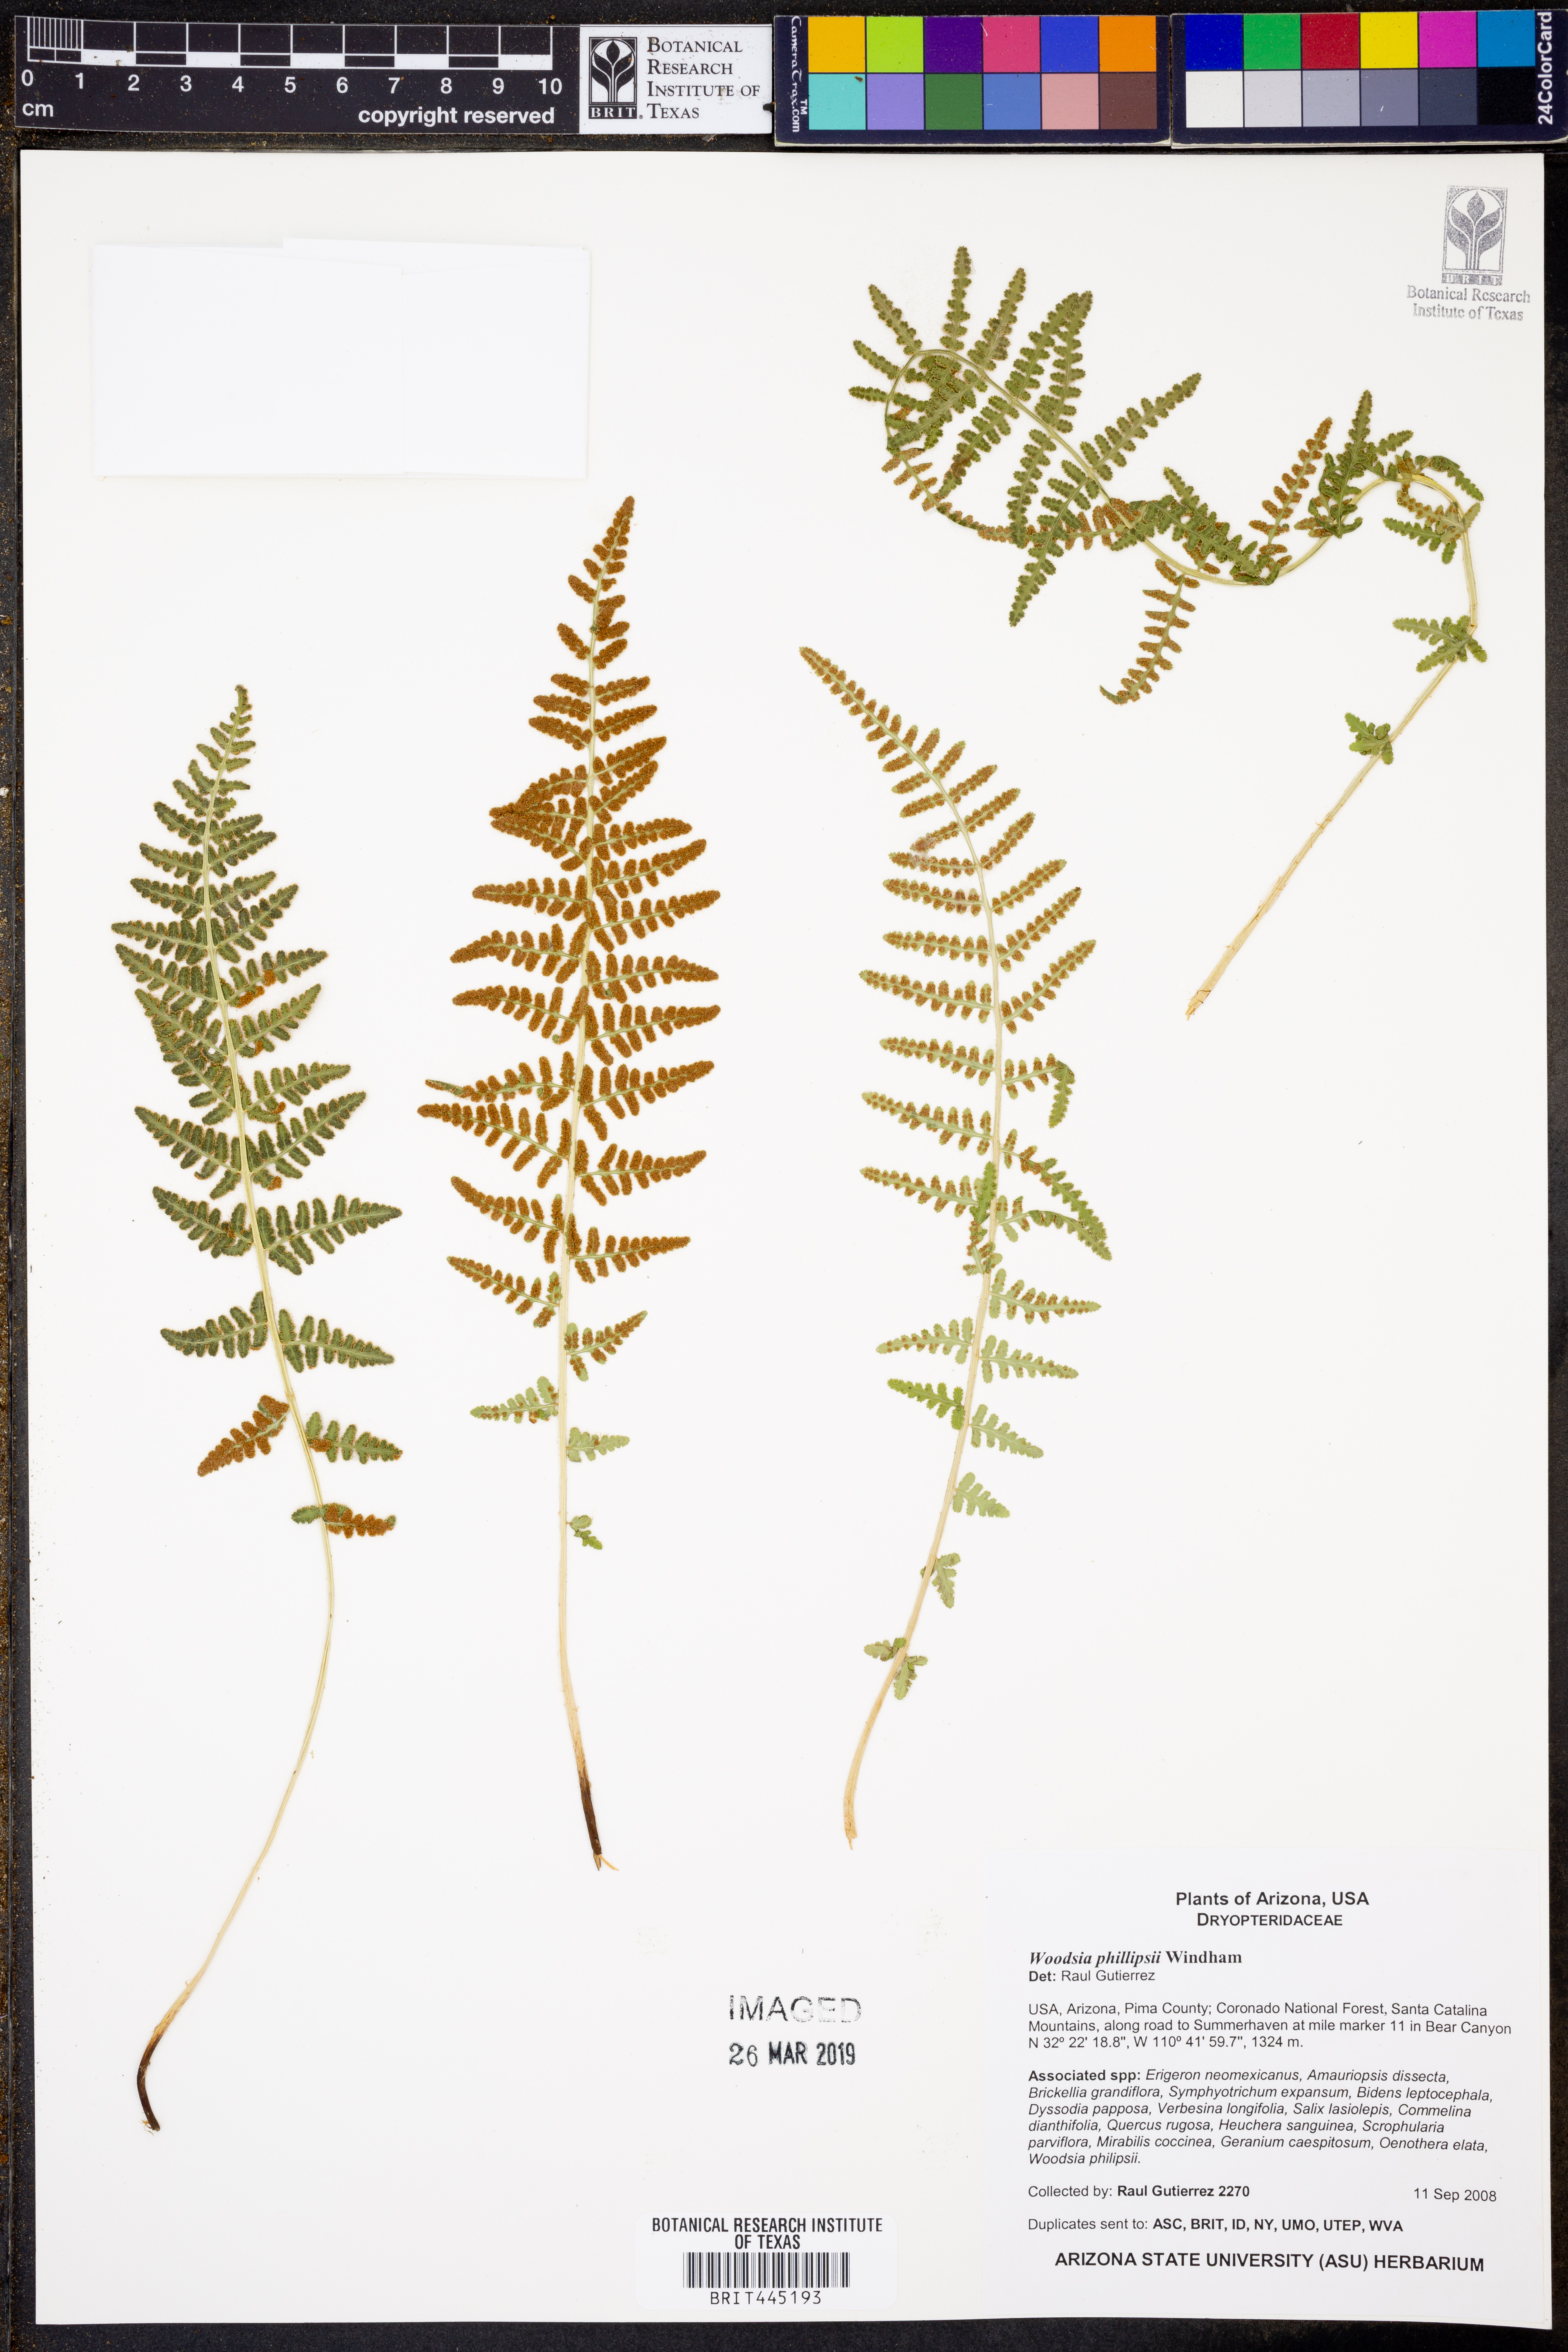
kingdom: Plantae
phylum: Tracheophyta
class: Polypodiopsida
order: Polypodiales
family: Woodsiaceae
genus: Physematium
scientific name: Physematium phillipsii
